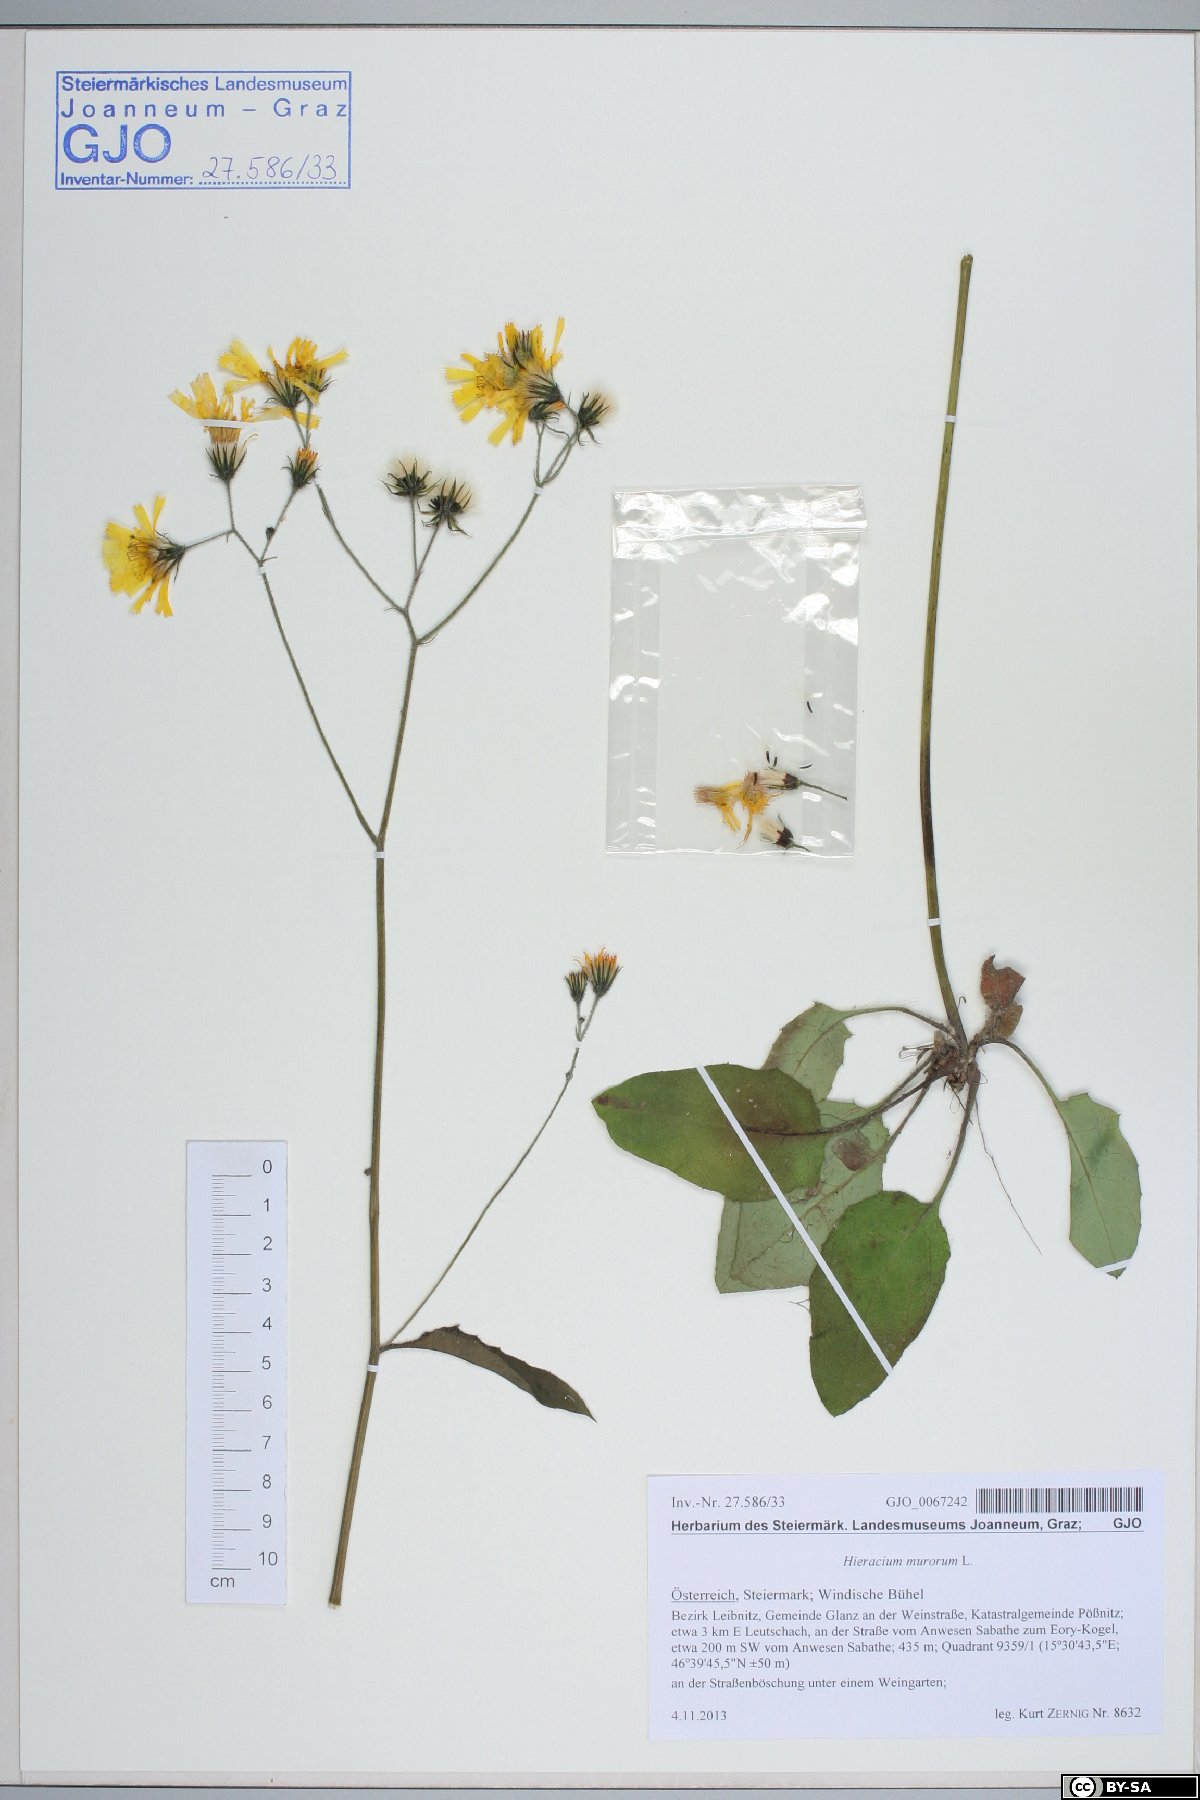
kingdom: Plantae
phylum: Tracheophyta
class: Magnoliopsida
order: Asterales
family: Asteraceae
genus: Hieracium
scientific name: Hieracium murorum
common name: Wall hawkweed
